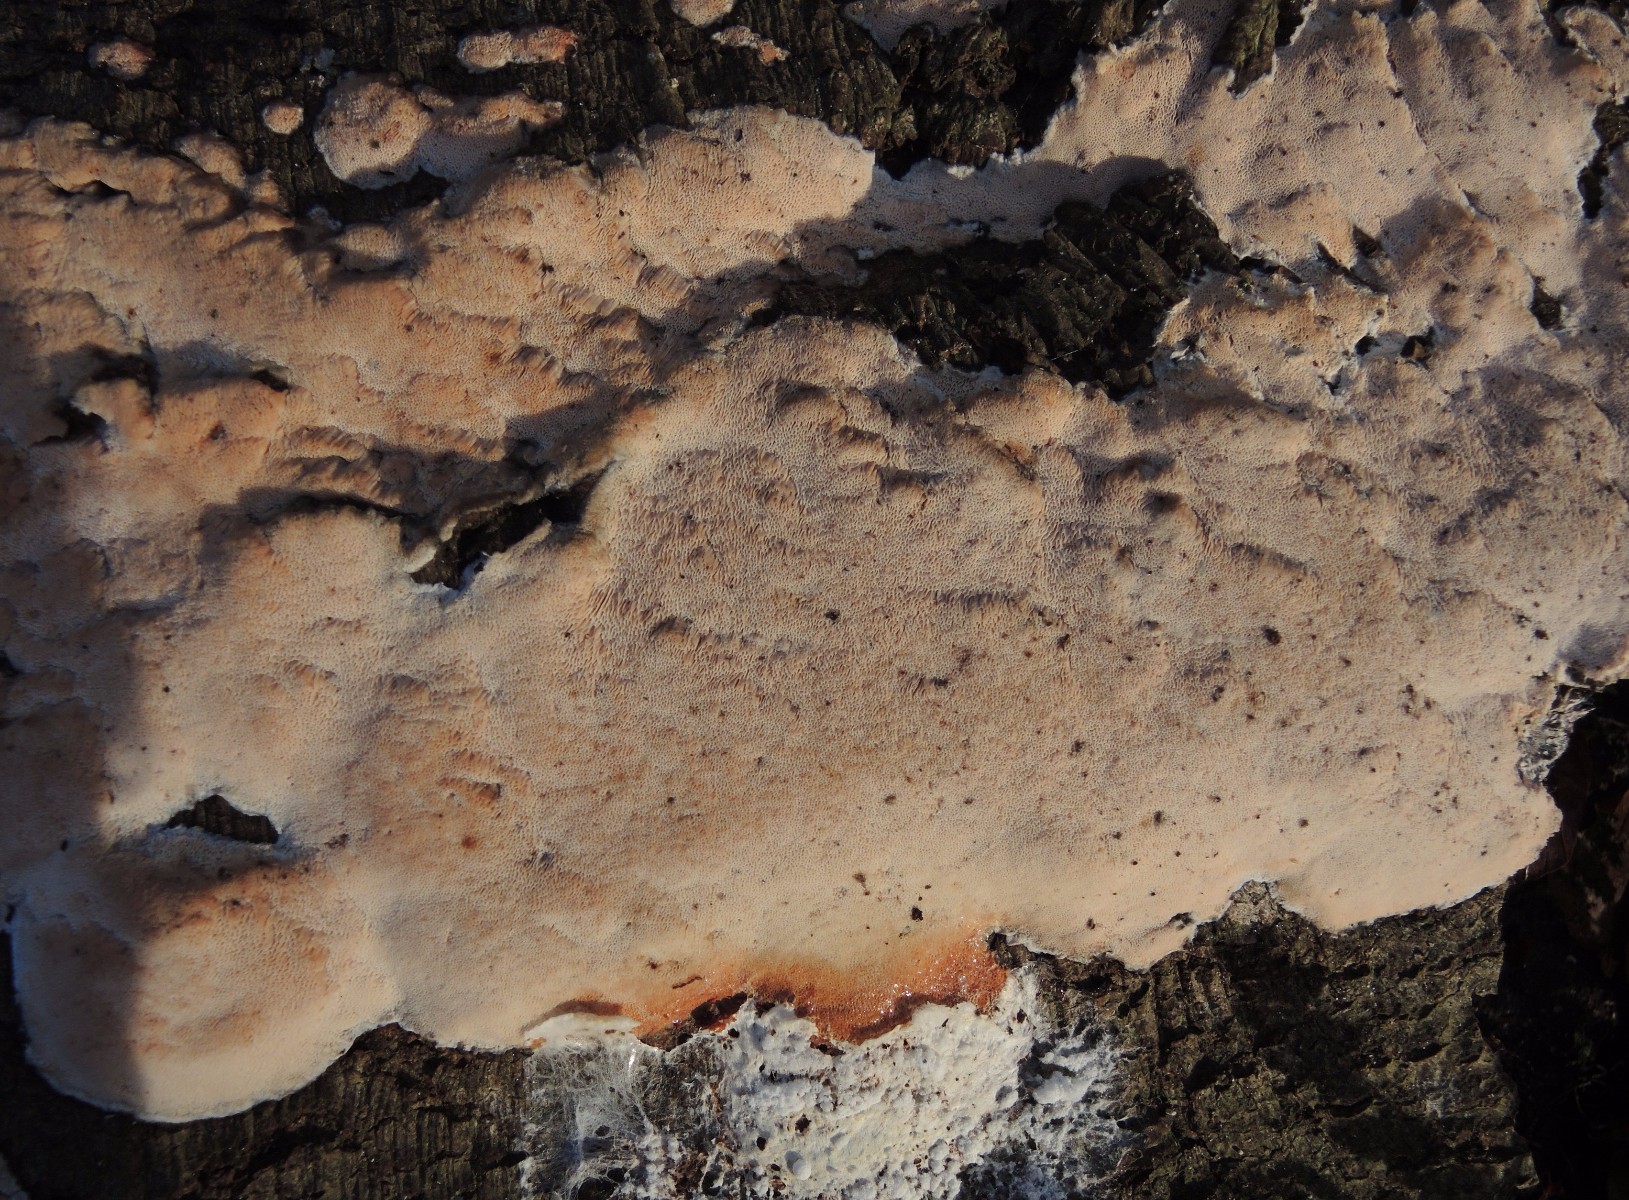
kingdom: Fungi
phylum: Basidiomycota
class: Agaricomycetes
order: Polyporales
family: Meruliaceae
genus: Mycoacia
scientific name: Mycoacia gilvescens
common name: rosa pastelporesvamp
